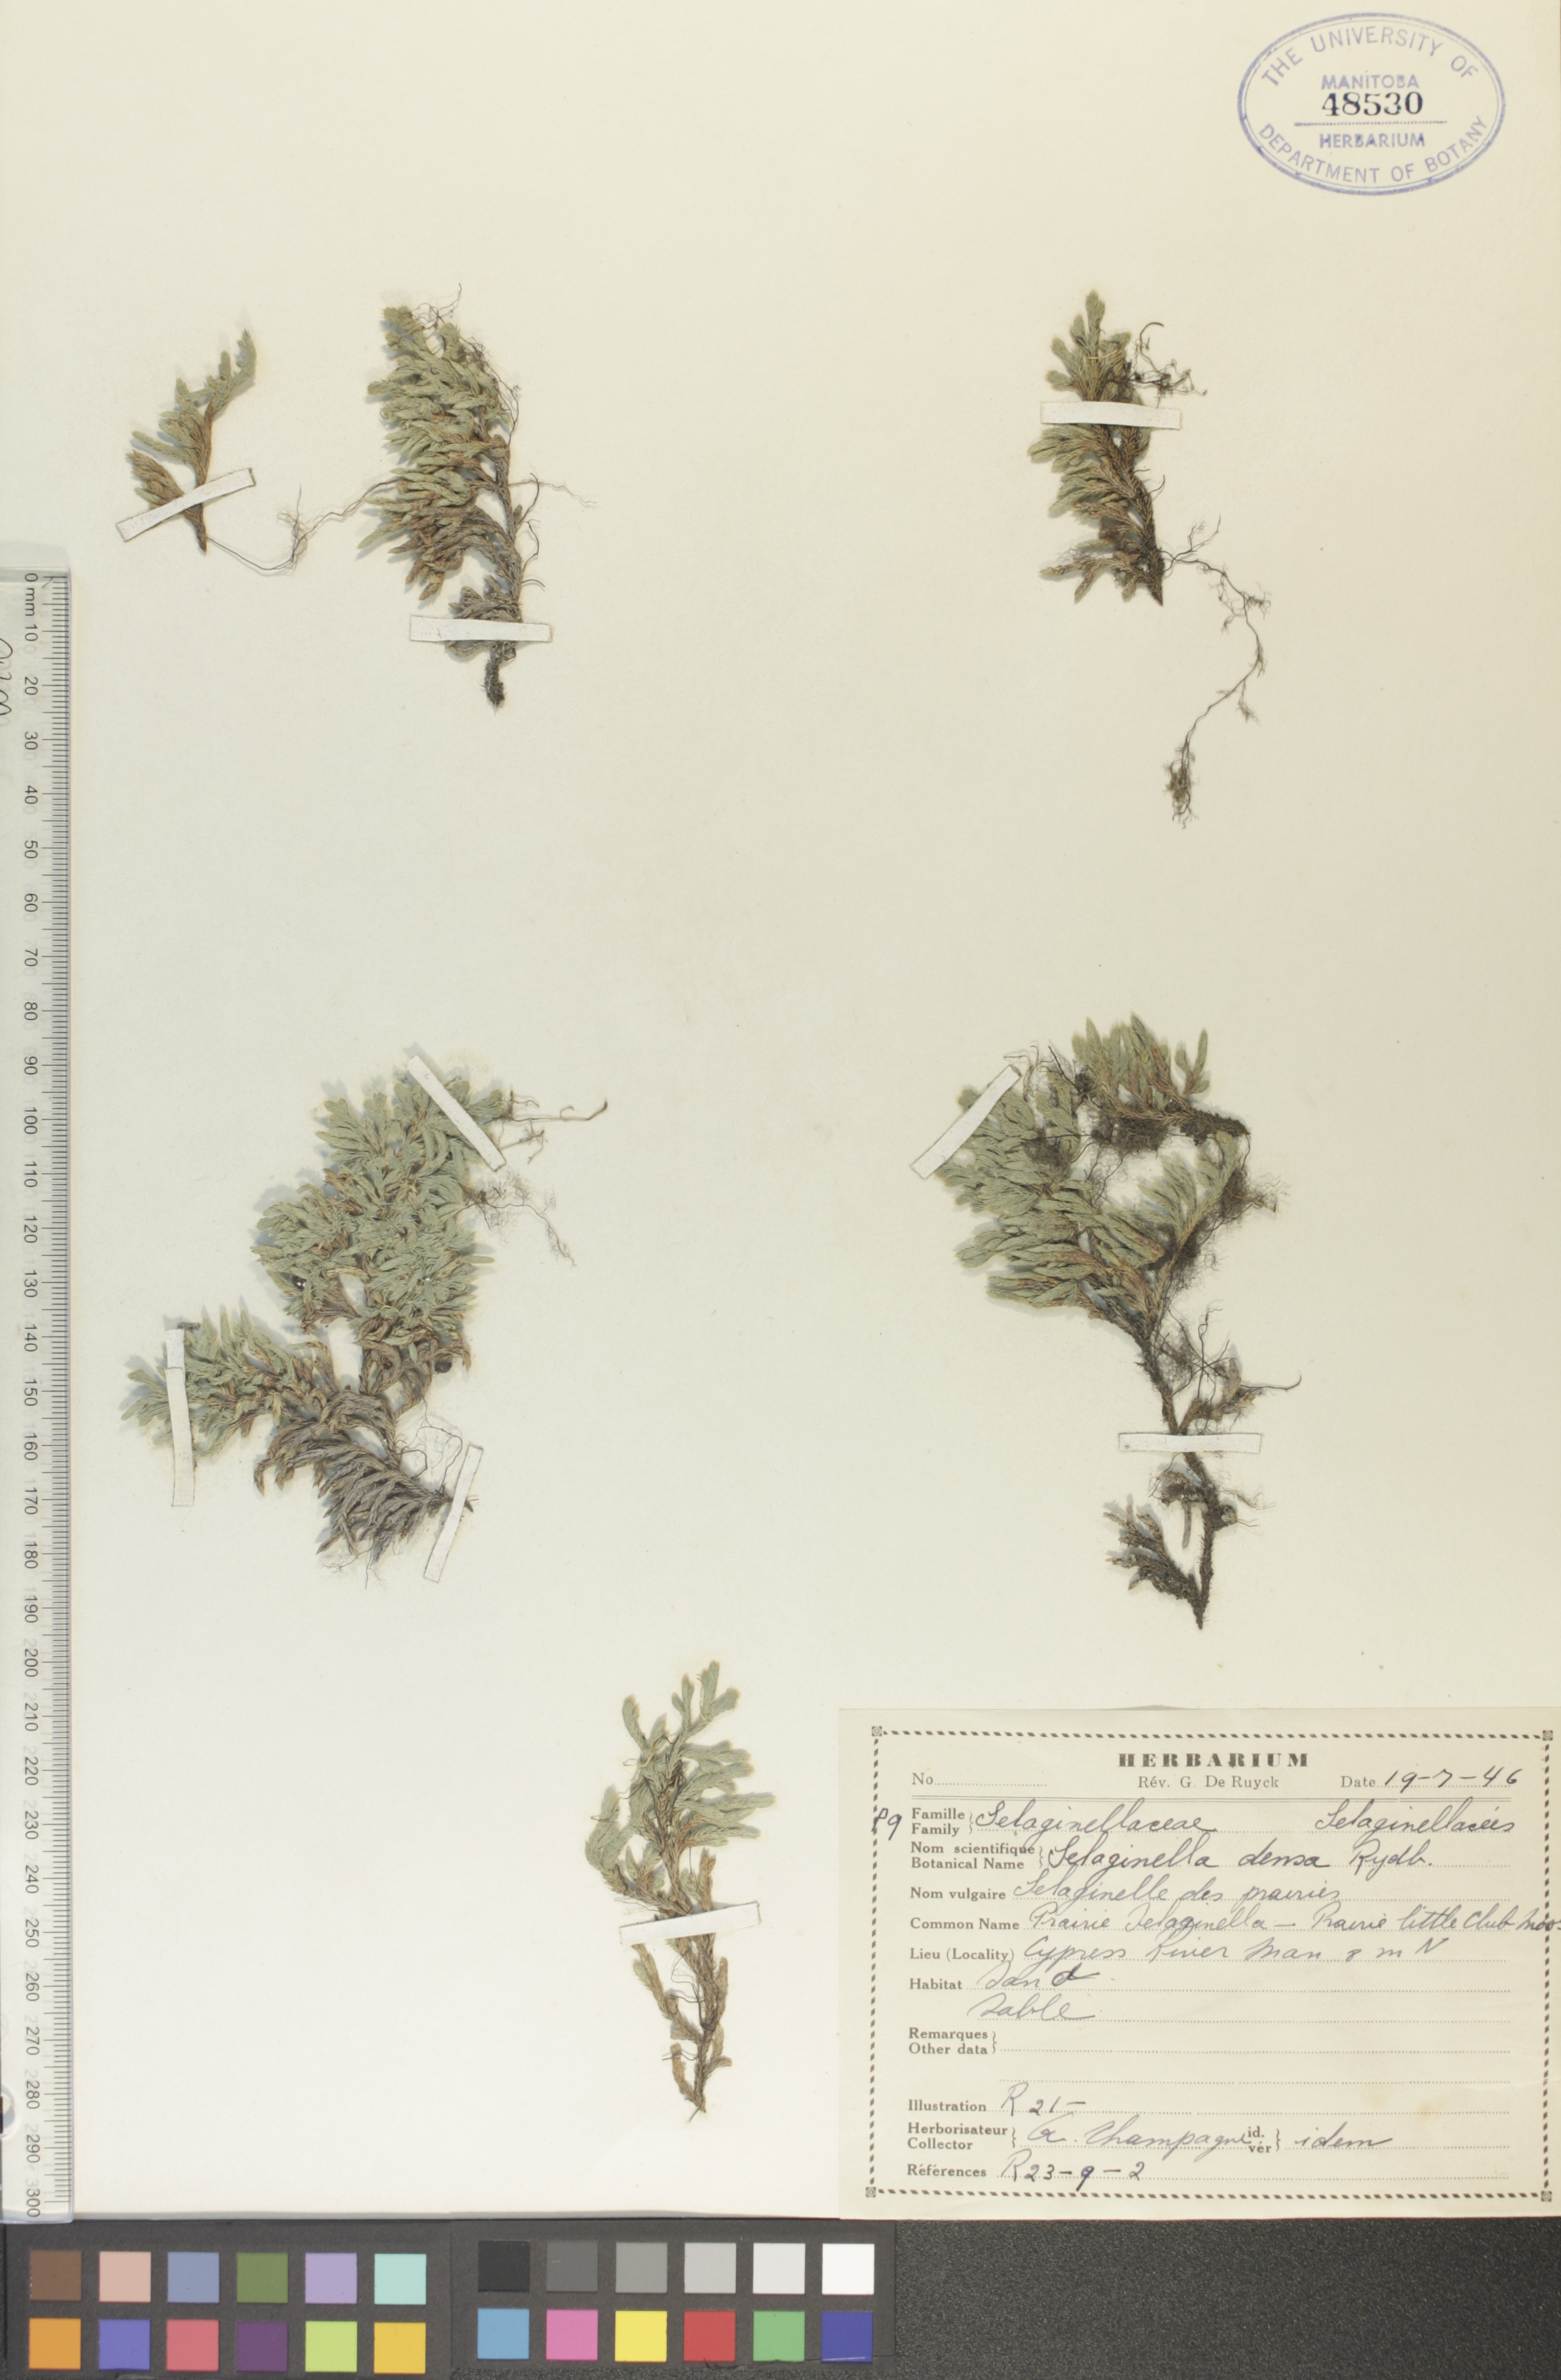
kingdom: Plantae
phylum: Tracheophyta
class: Lycopodiopsida
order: Selaginellales
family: Selaginellaceae
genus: Selaginella
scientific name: Selaginella densa
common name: Mountain spike-moss
